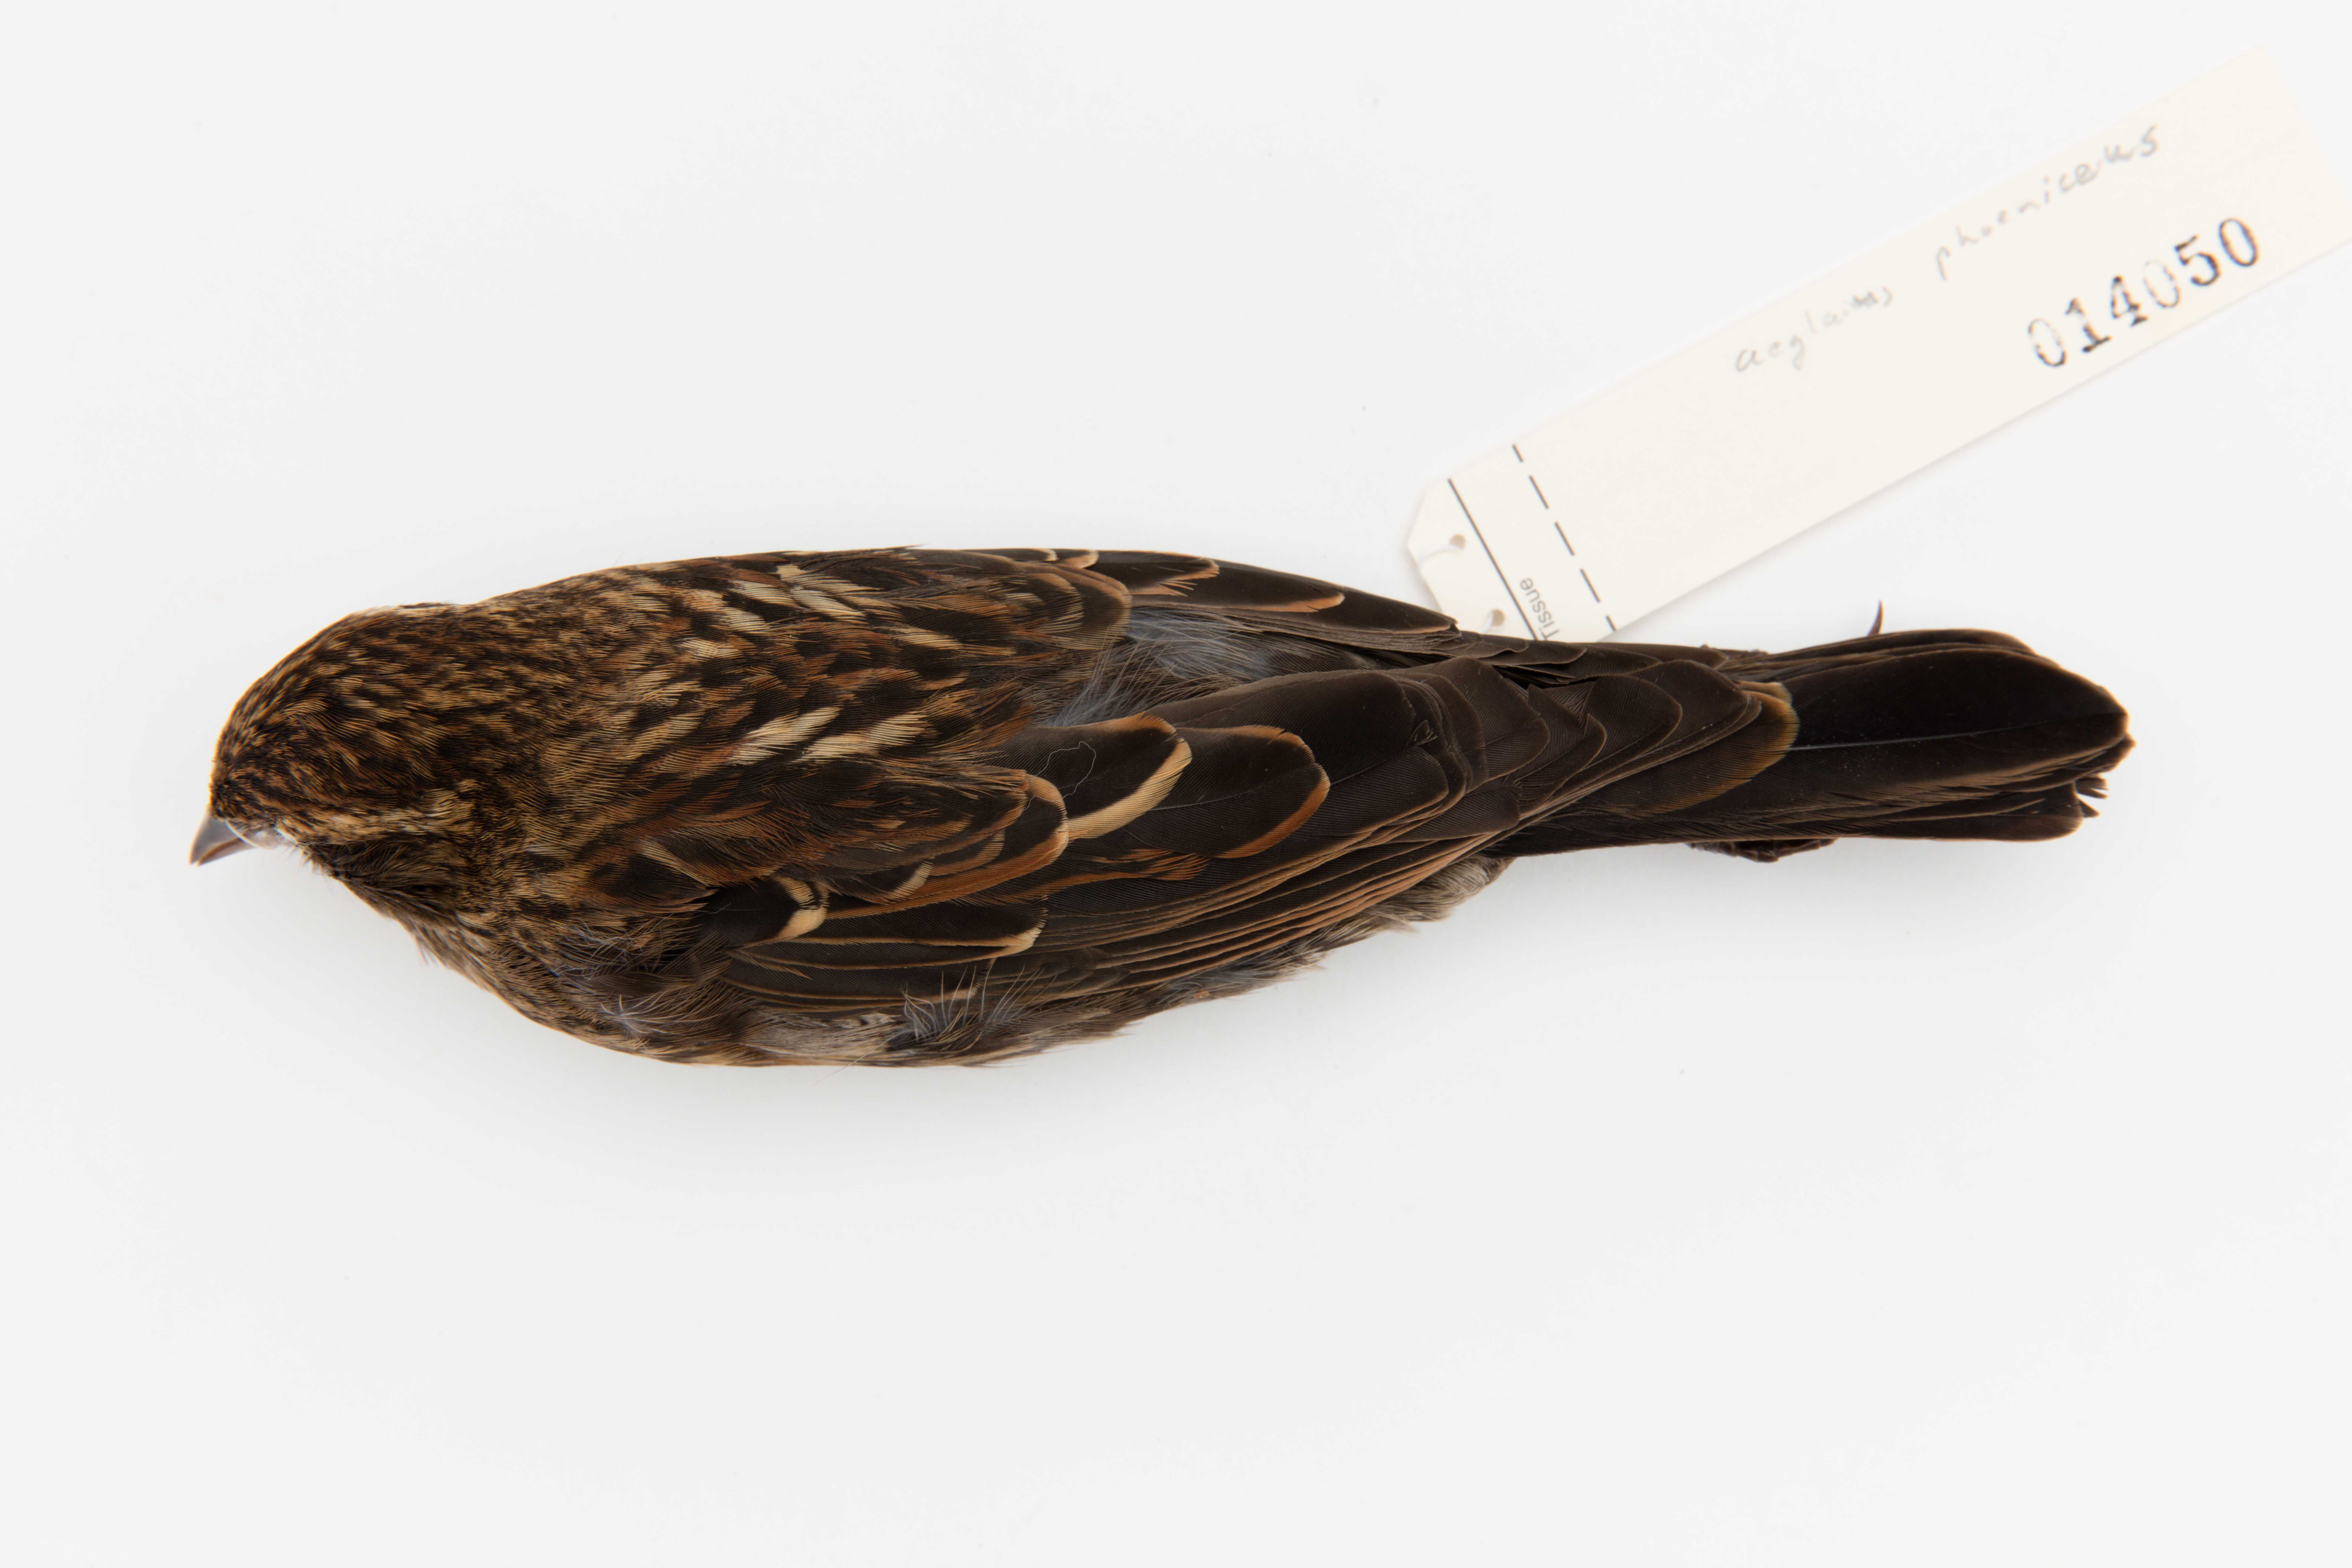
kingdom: Animalia
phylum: Chordata
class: Aves
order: Passeriformes
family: Icteridae
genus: Agelaius
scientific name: Agelaius phoeniceus
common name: Red-winged blackbird
